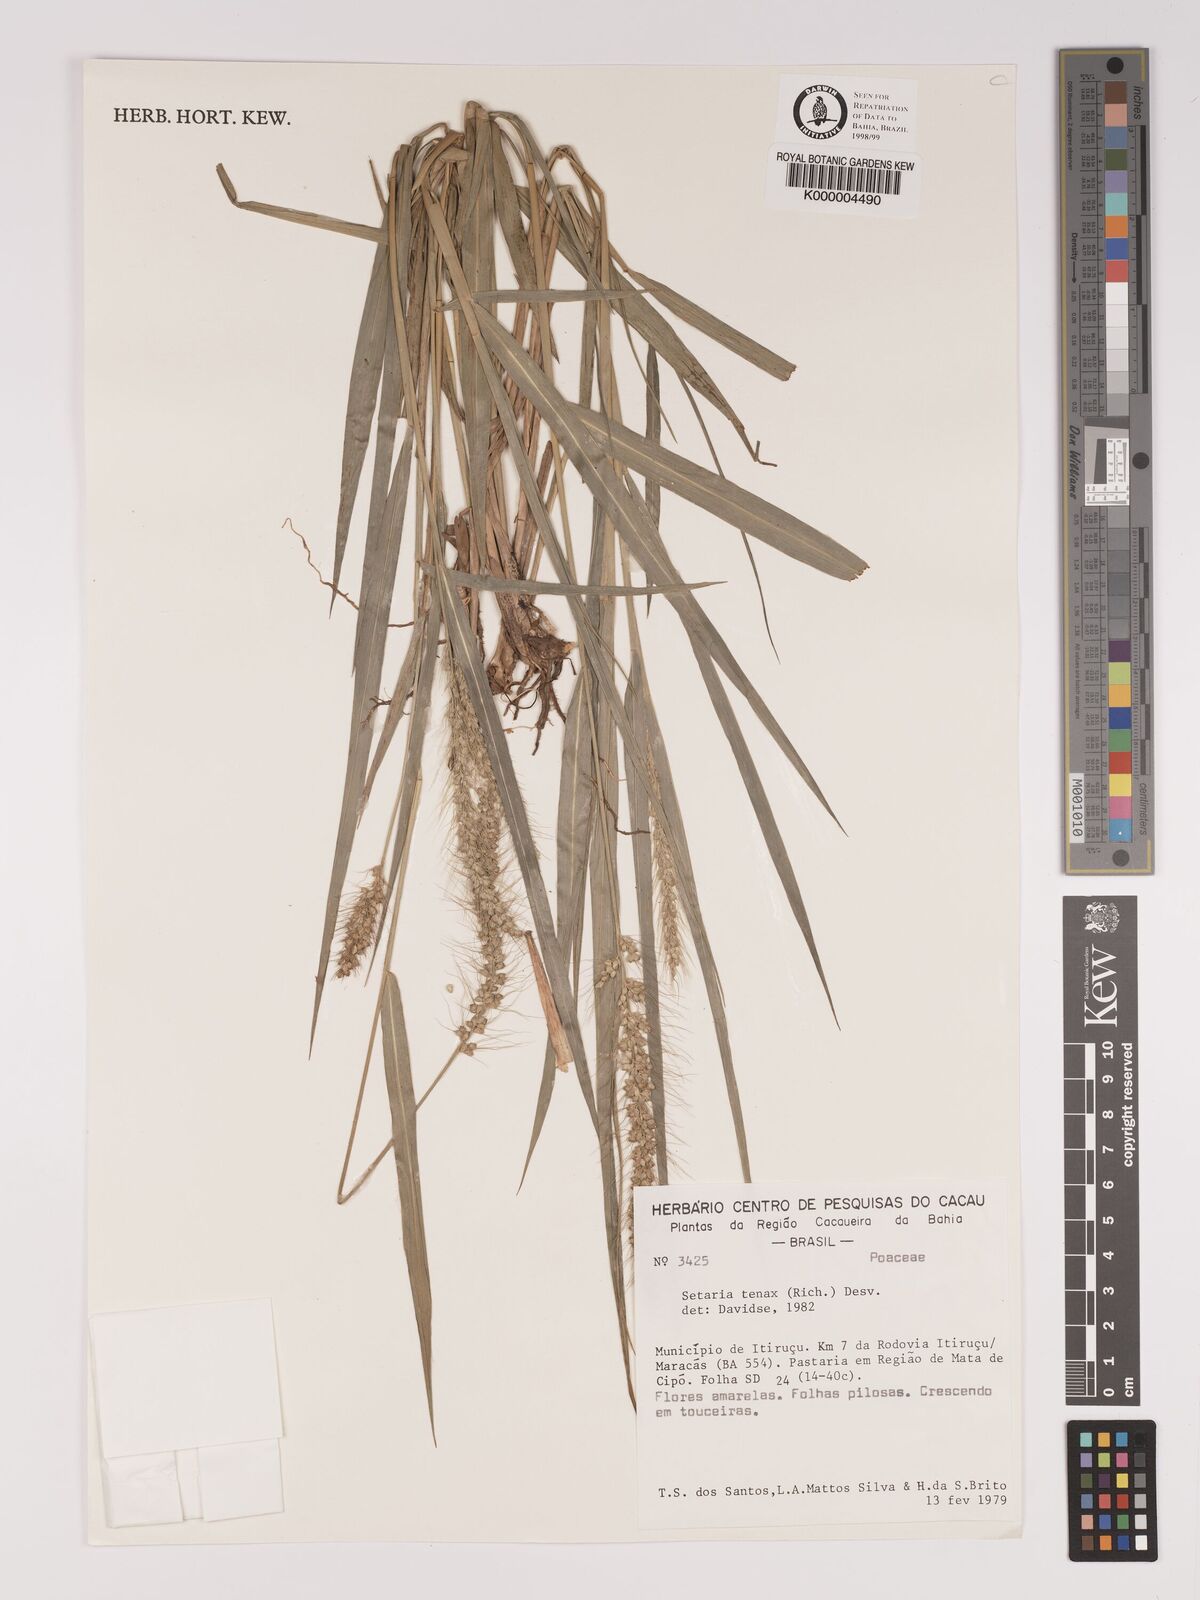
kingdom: Plantae
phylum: Tracheophyta
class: Liliopsida
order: Poales
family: Poaceae
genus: Setaria
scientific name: Setaria tenax
